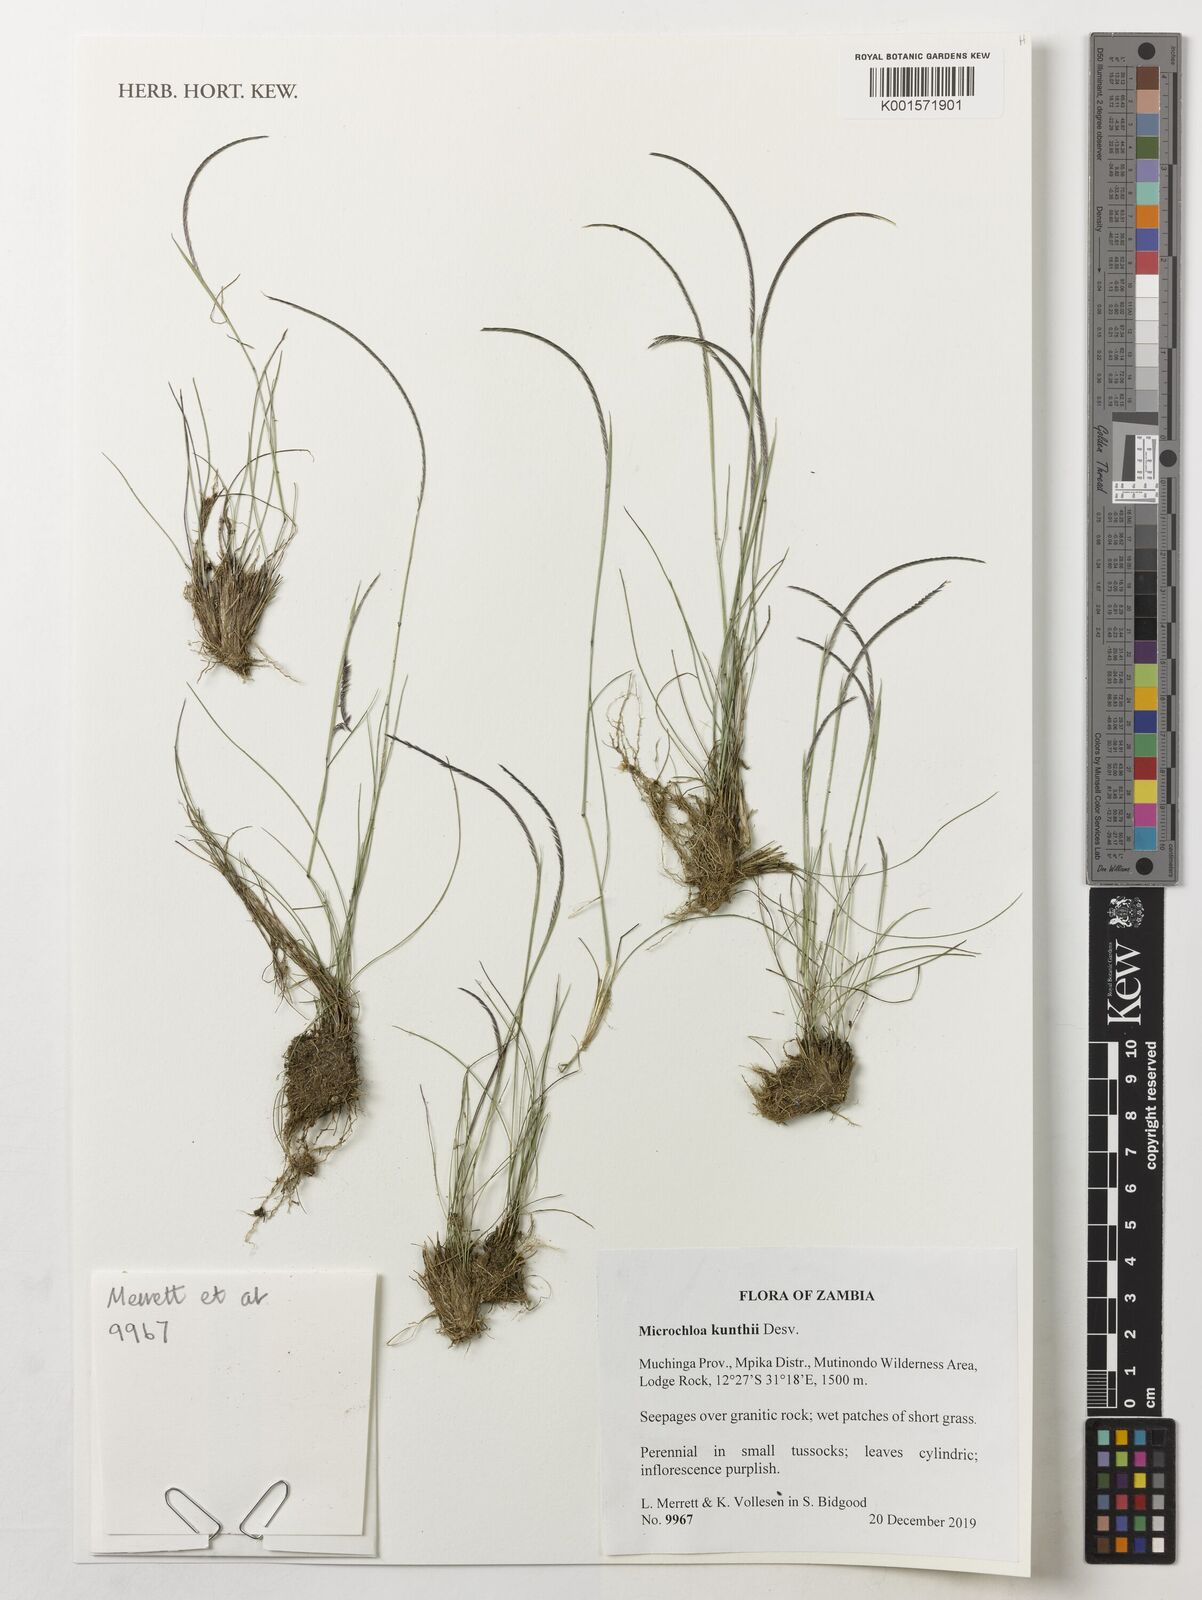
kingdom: Plantae
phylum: Tracheophyta
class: Liliopsida
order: Poales
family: Poaceae
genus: Microchloa
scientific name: Microchloa kunthii
